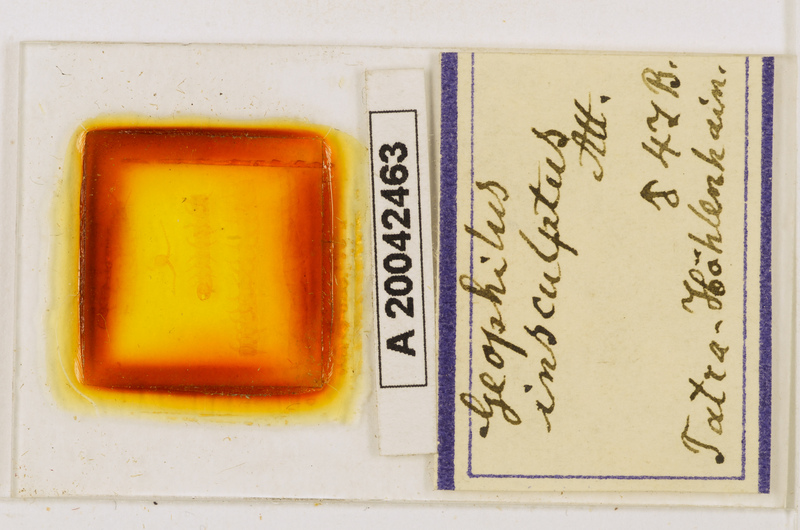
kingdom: Animalia
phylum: Arthropoda
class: Chilopoda
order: Geophilomorpha
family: Geophilidae
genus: Geophilus
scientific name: Geophilus insculptus
